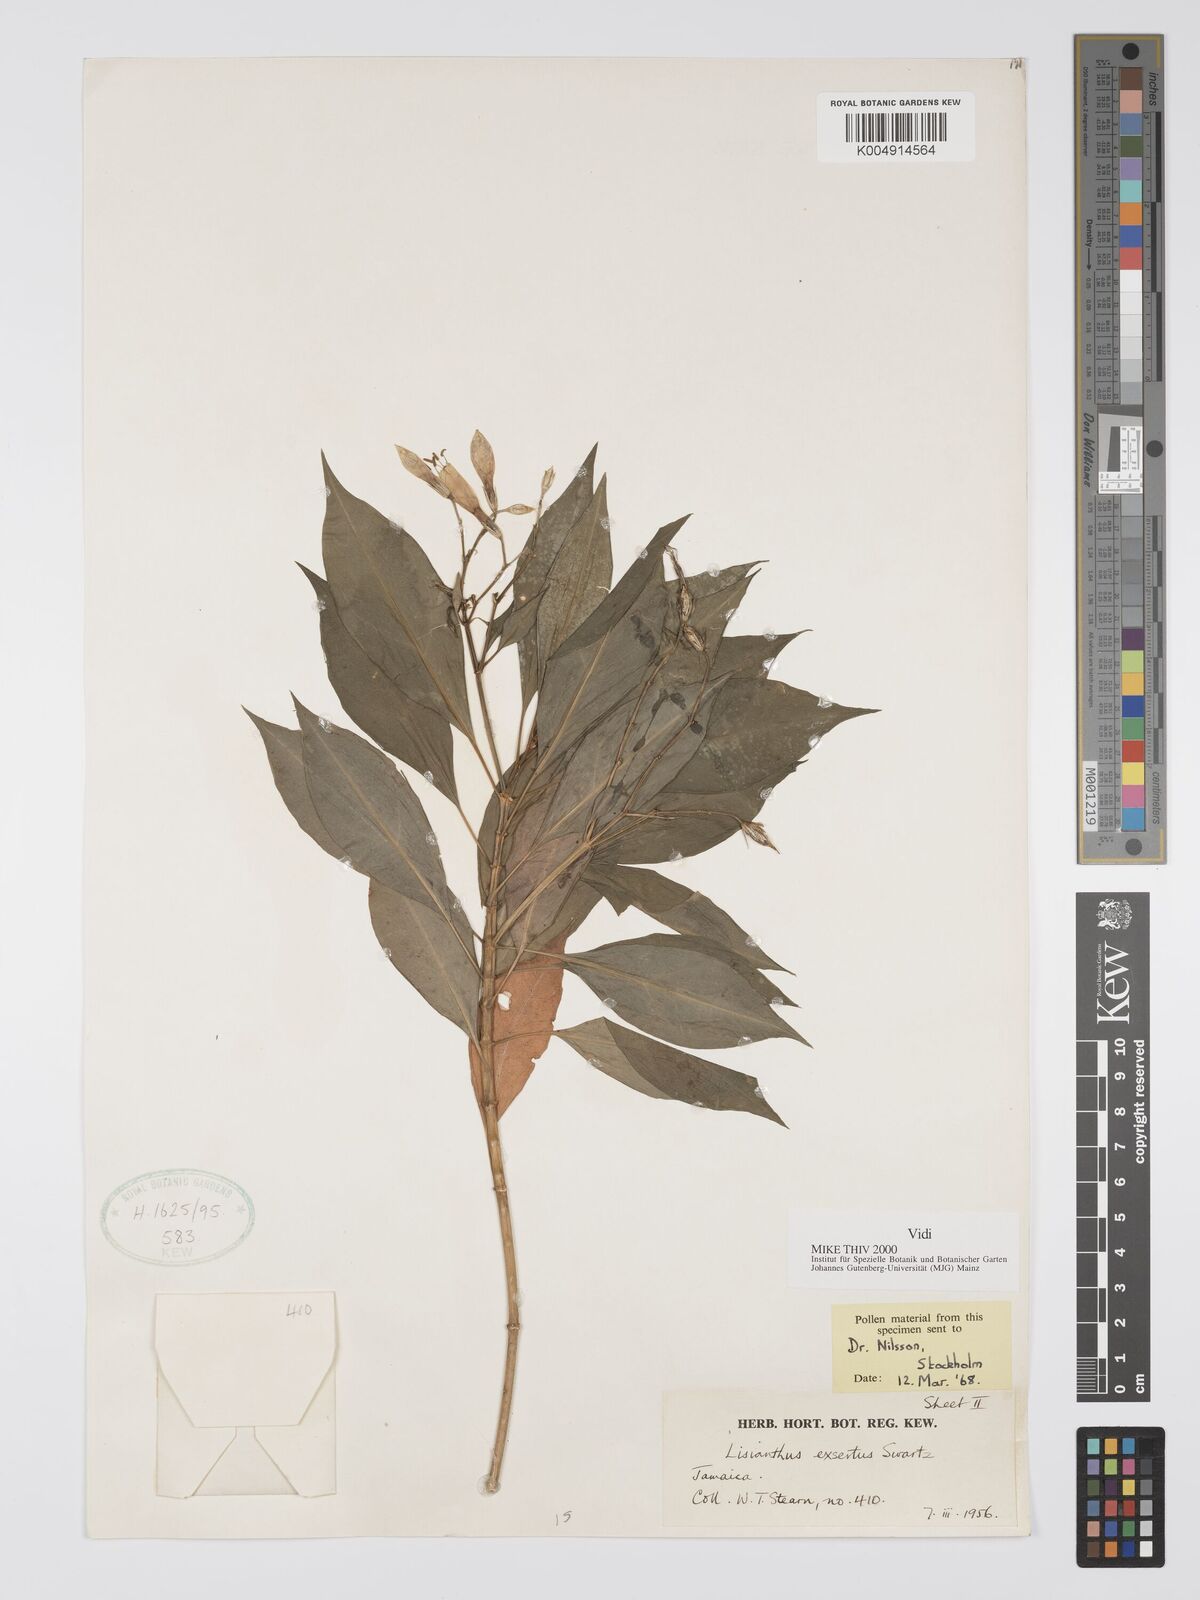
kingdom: Plantae
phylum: Tracheophyta
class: Magnoliopsida
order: Gentianales
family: Gentianaceae
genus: Lisianthus
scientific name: Lisianthus exsertus
